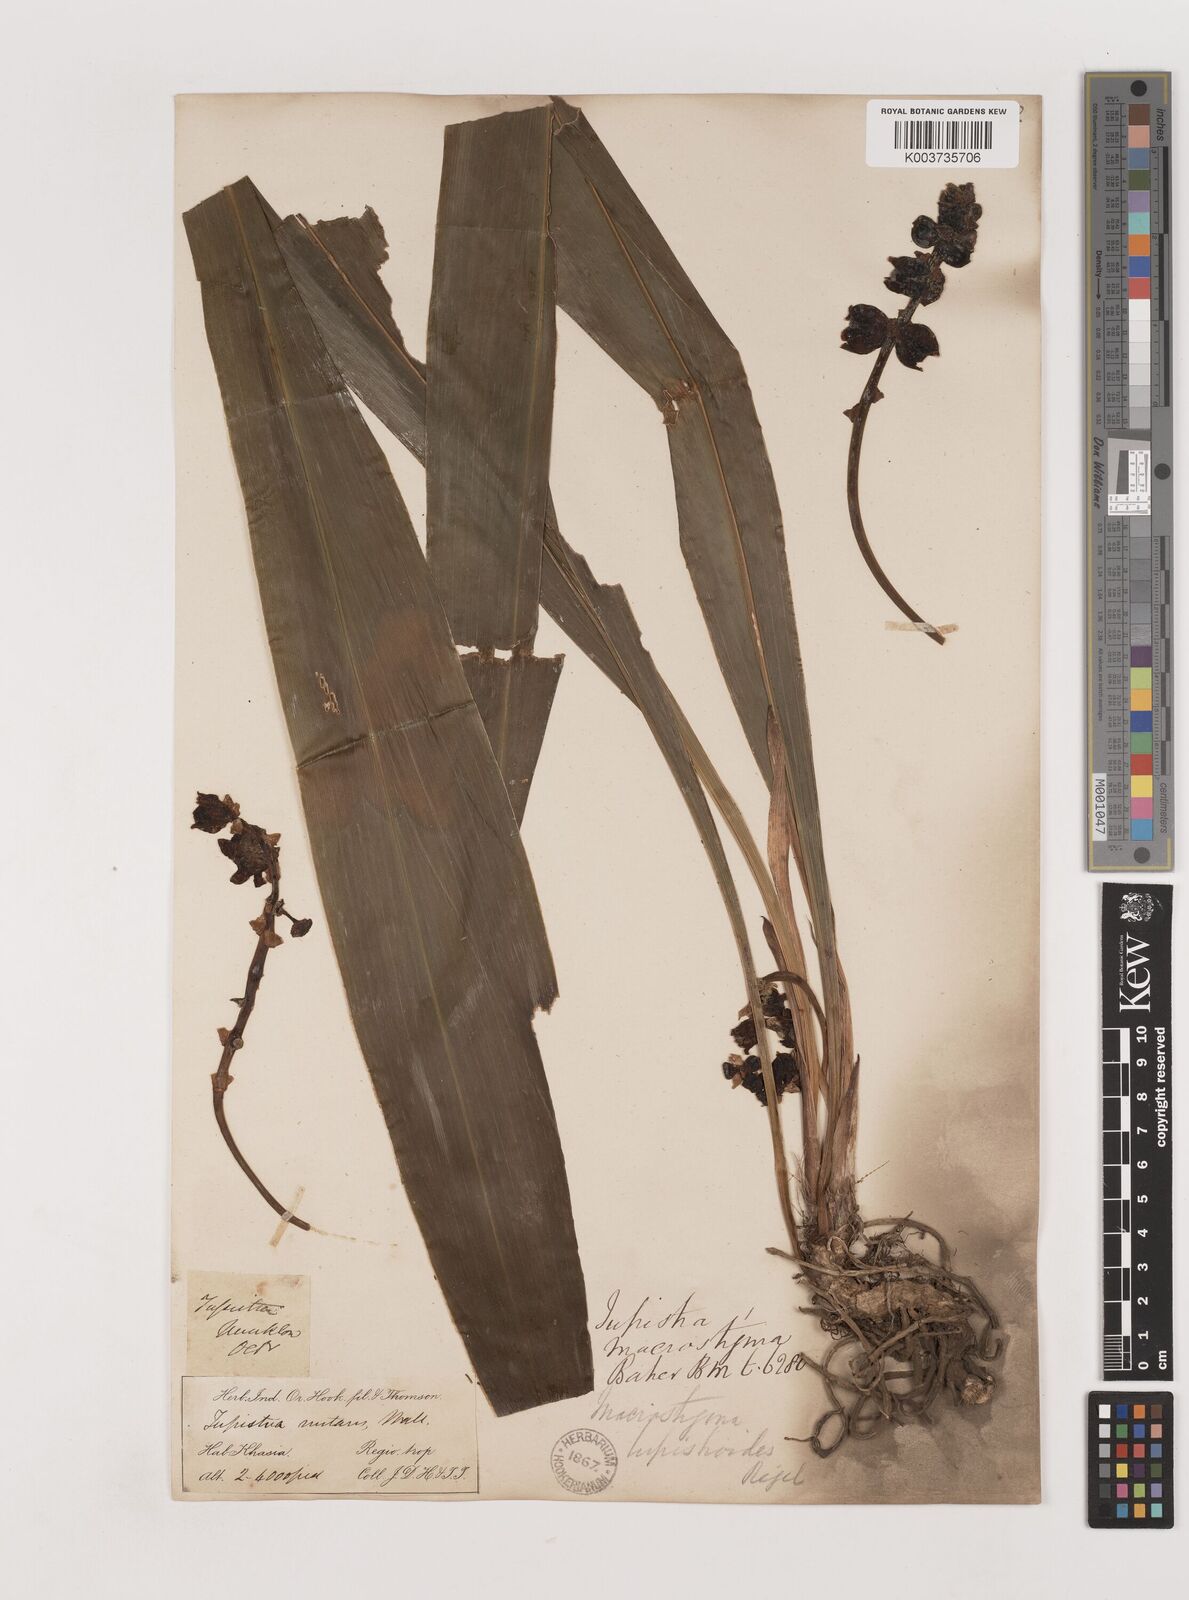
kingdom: Plantae
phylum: Tracheophyta
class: Liliopsida
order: Asparagales
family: Asparagaceae
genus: Tupistra
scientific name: Tupistra tupistroides
